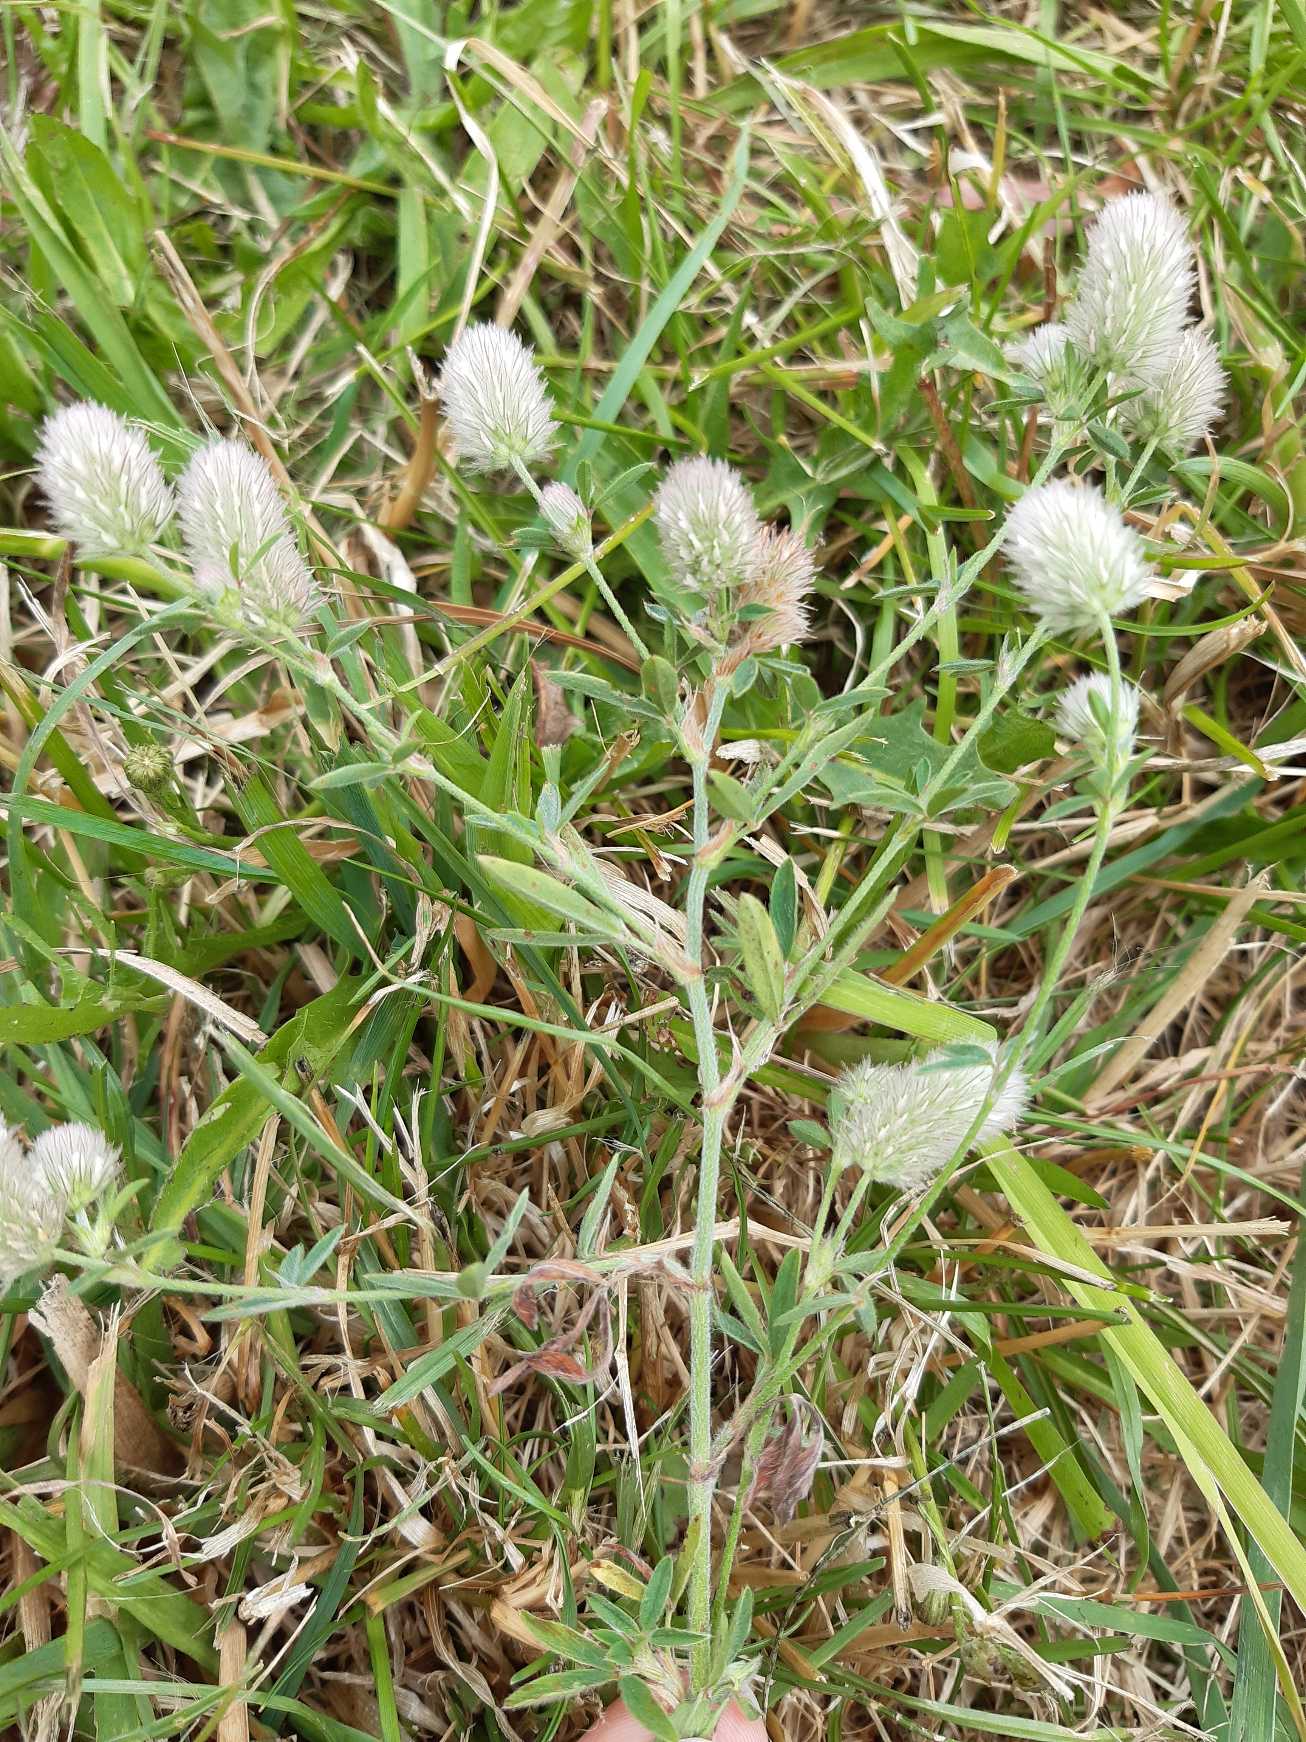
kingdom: Plantae
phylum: Tracheophyta
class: Magnoliopsida
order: Fabales
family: Fabaceae
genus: Trifolium
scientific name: Trifolium arvense
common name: Hare-kløver
